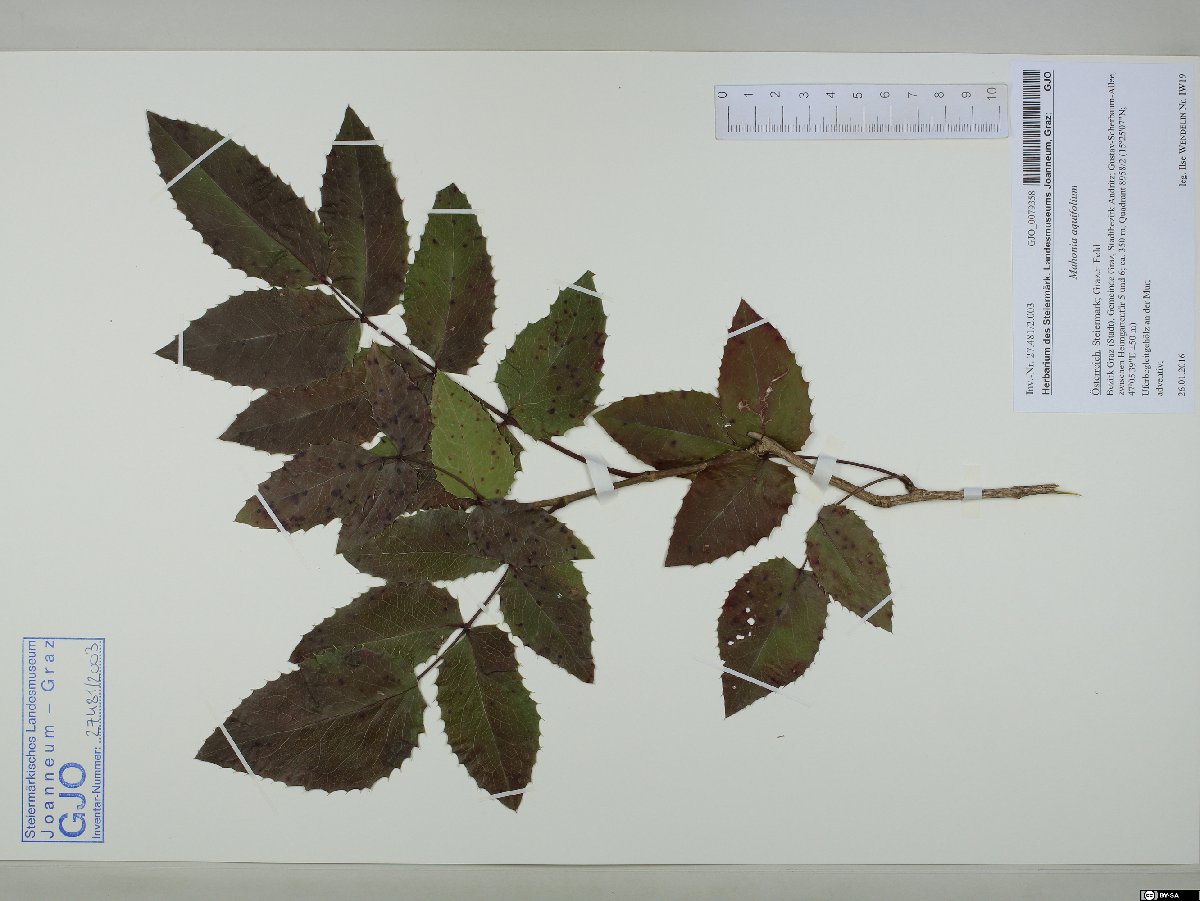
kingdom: Plantae
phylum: Tracheophyta
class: Magnoliopsida
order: Ranunculales
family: Berberidaceae
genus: Mahonia
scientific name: Mahonia aquifolium
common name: Oregon-grape
